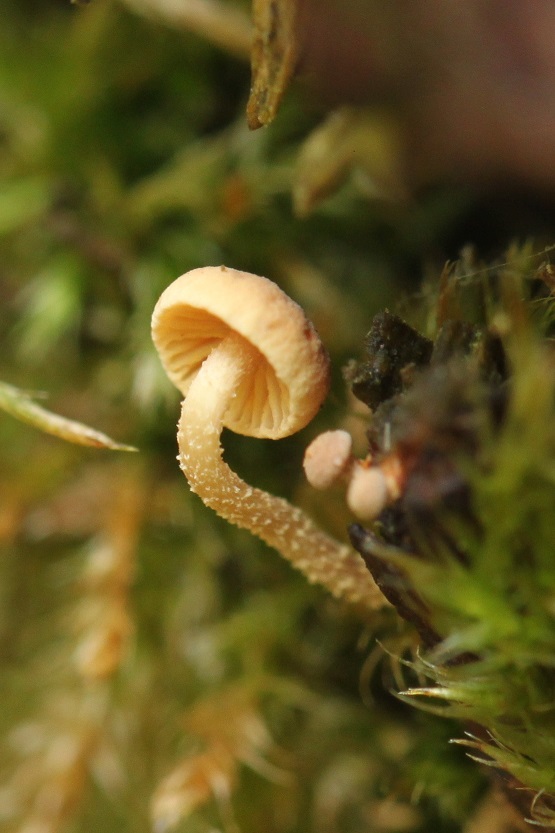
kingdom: Fungi
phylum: Basidiomycota
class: Agaricomycetes
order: Agaricales
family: Omphalotaceae
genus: Collybiopsis
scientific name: Collybiopsis ramealis
